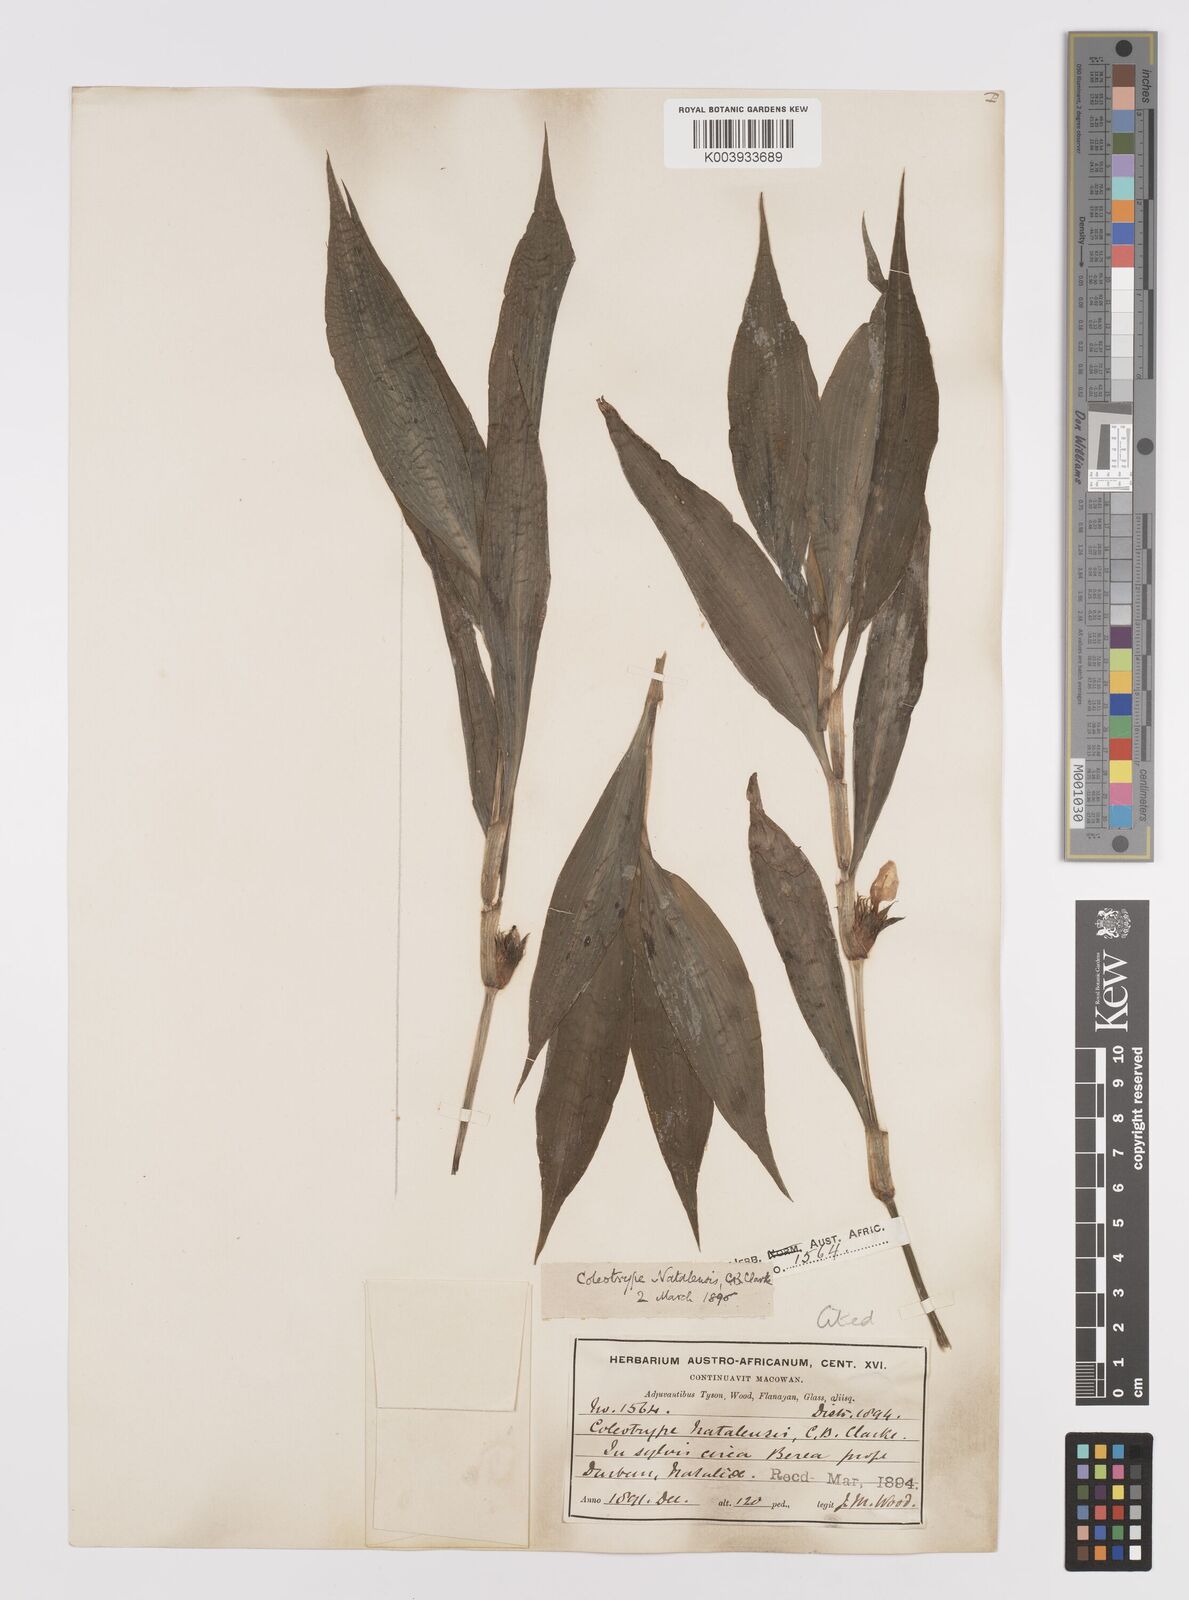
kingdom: Plantae
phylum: Tracheophyta
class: Liliopsida
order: Commelinales
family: Commelinaceae
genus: Coleotrype
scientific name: Coleotrype natalensis
